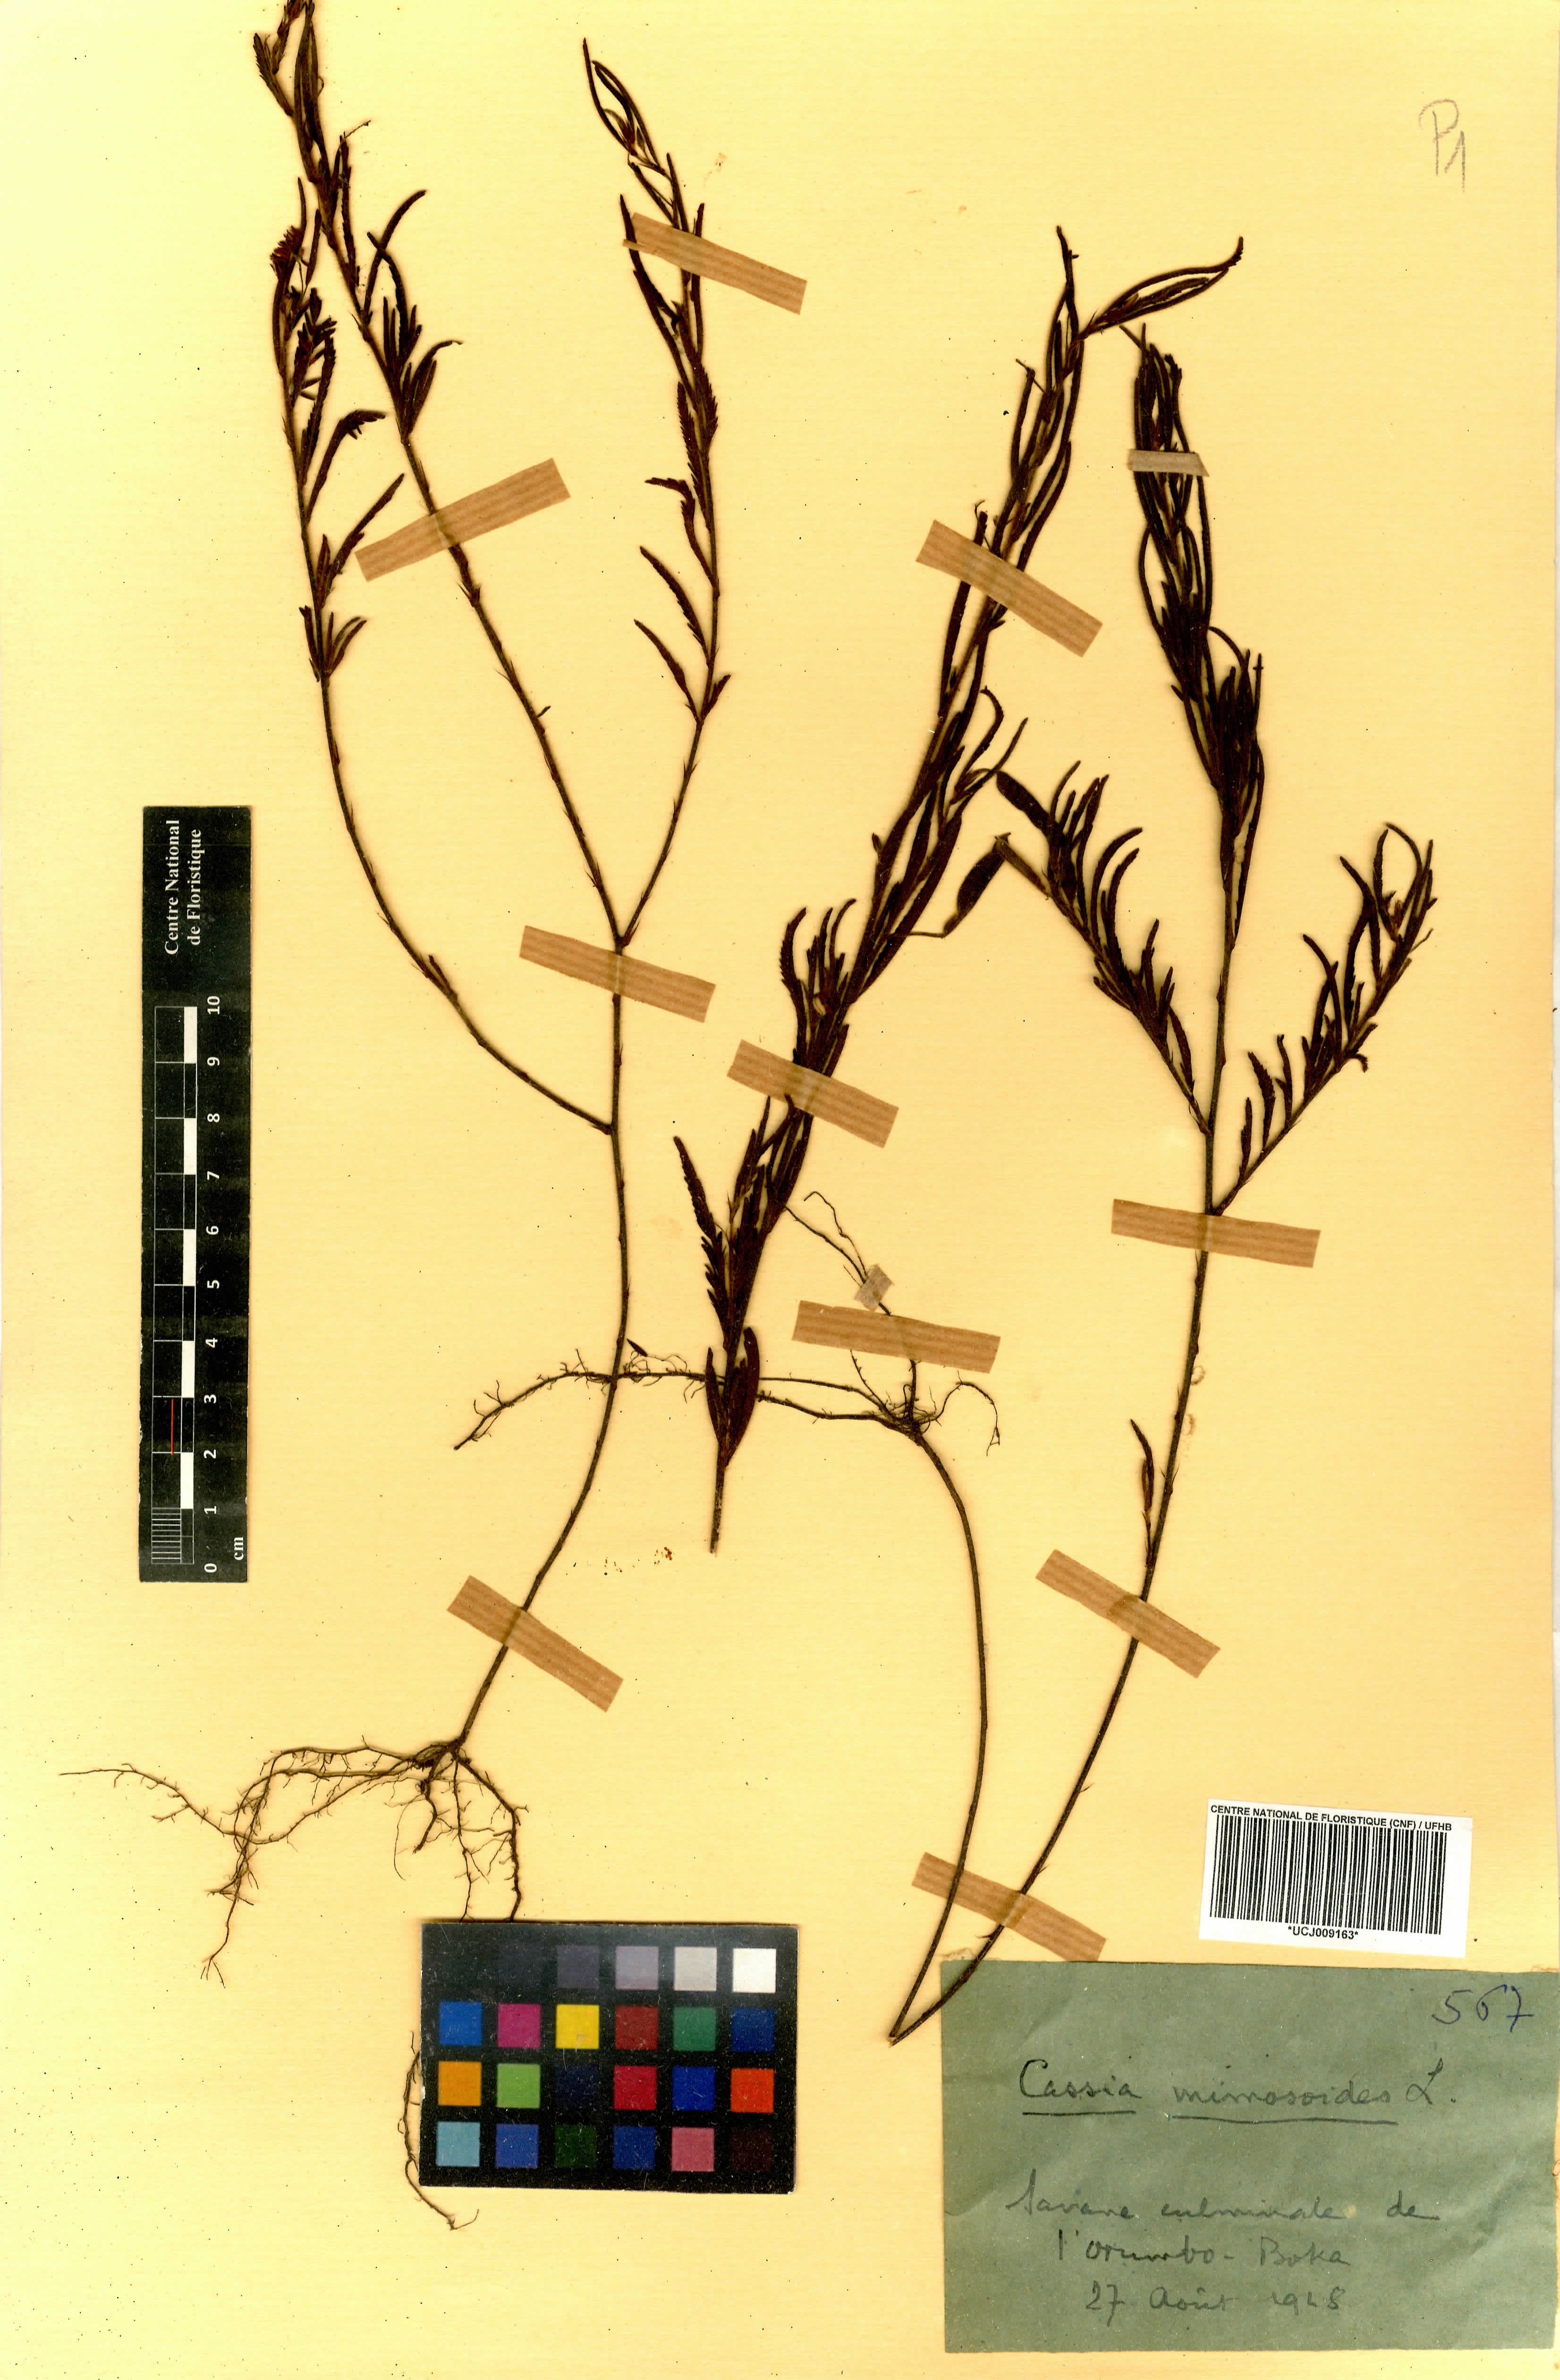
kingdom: Plantae
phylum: Tracheophyta
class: Magnoliopsida
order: Fabales
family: Fabaceae
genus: Chamaecrista
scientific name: Chamaecrista mimosoides
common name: Fish-bone cassia
